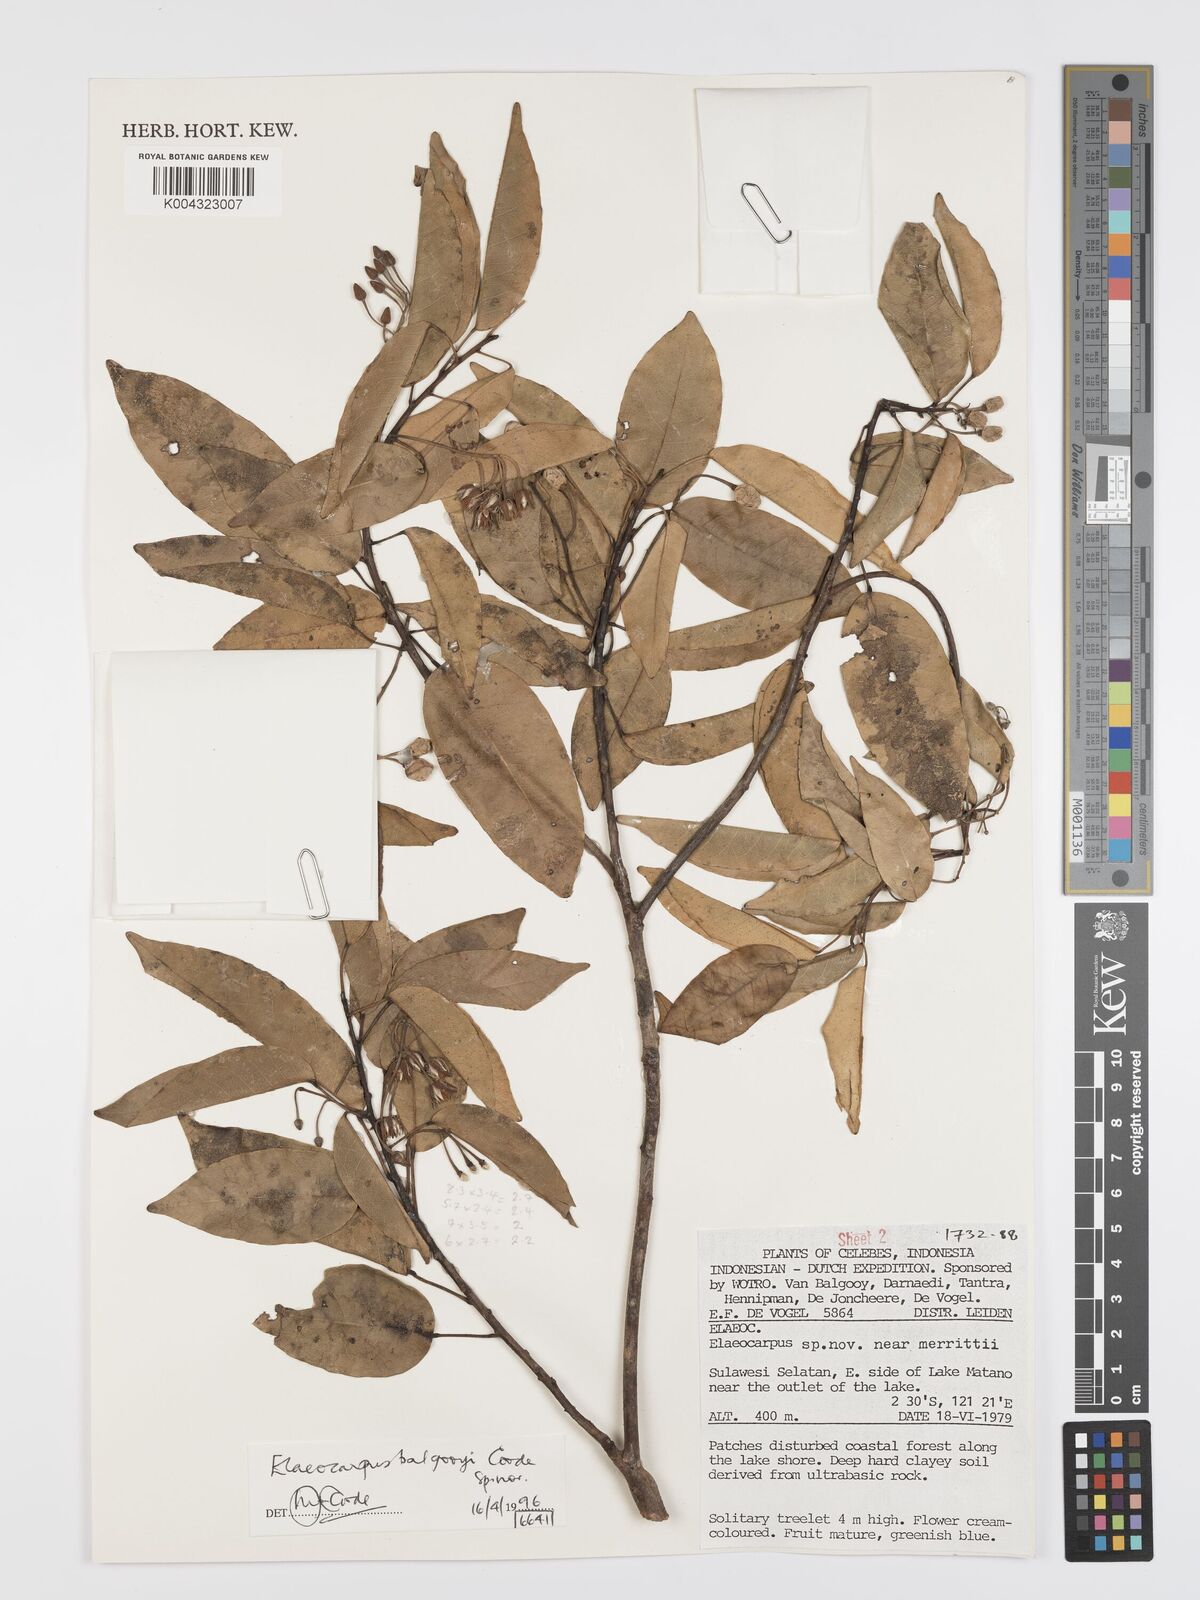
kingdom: Plantae
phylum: Tracheophyta
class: Magnoliopsida
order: Oxalidales
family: Elaeocarpaceae
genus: Elaeocarpus
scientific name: Elaeocarpus balgooyi
